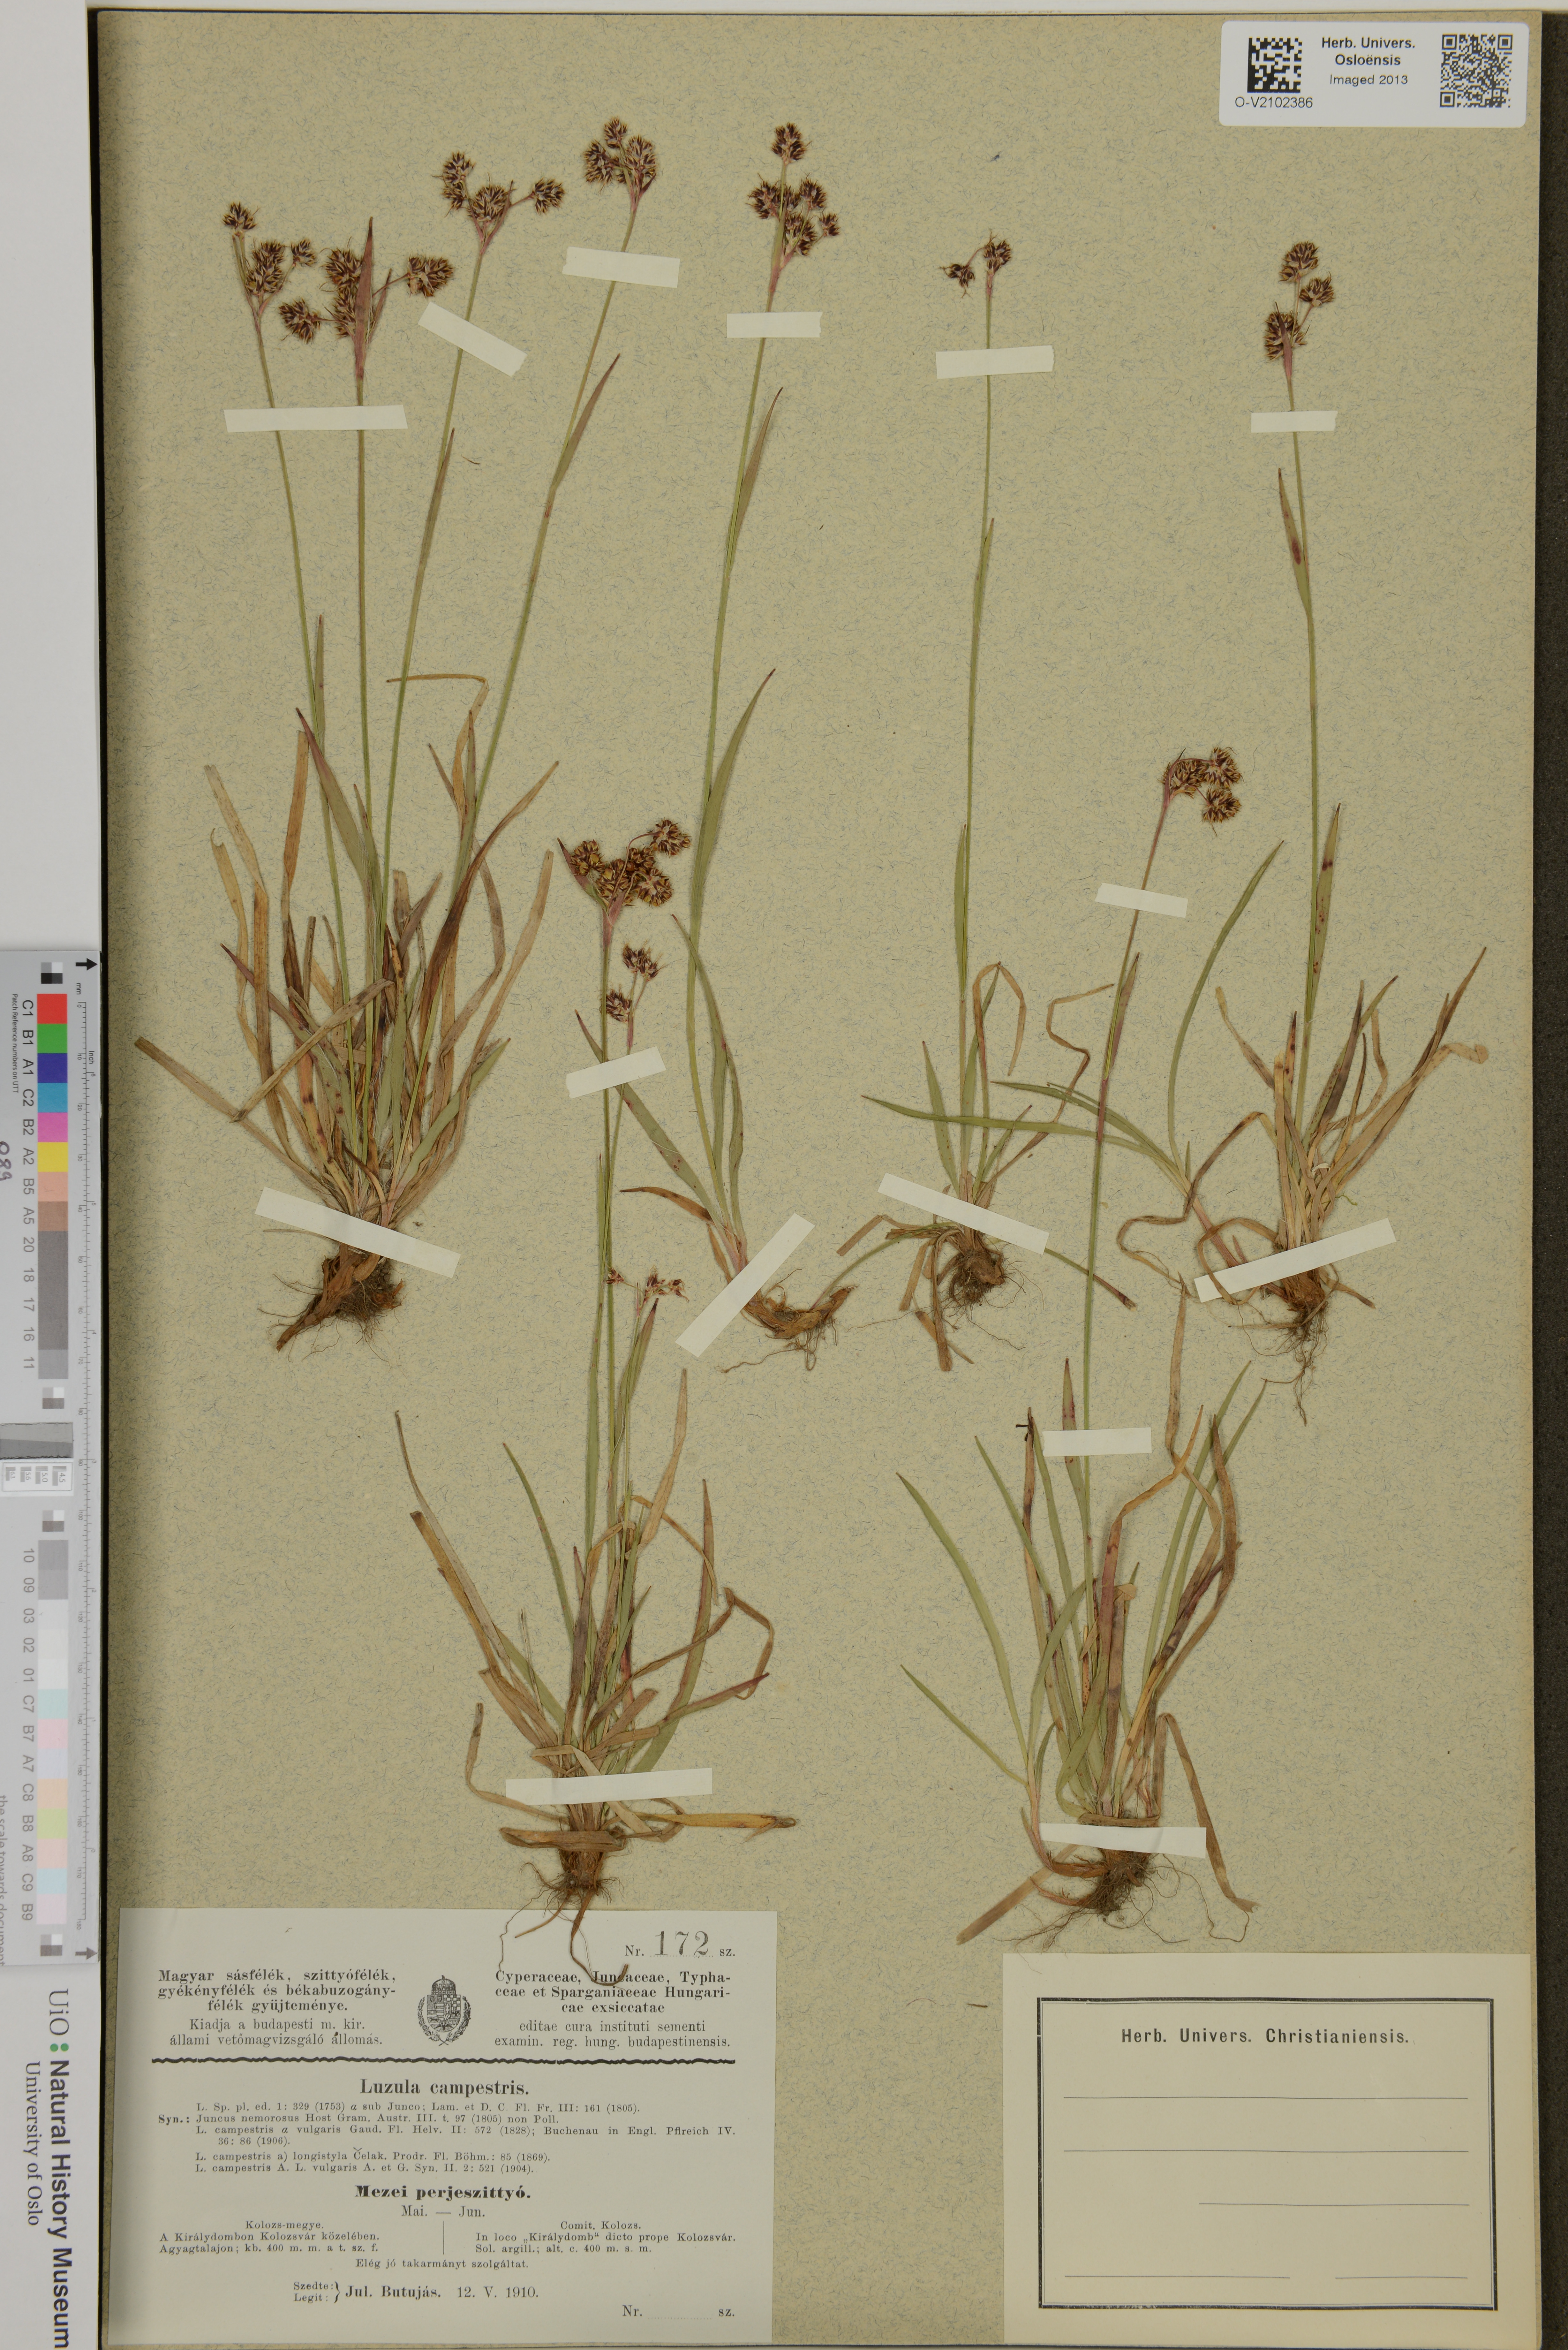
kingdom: Plantae
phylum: Tracheophyta
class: Liliopsida
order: Poales
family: Juncaceae
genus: Luzula
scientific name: Luzula campestris
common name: Field wood-rush
